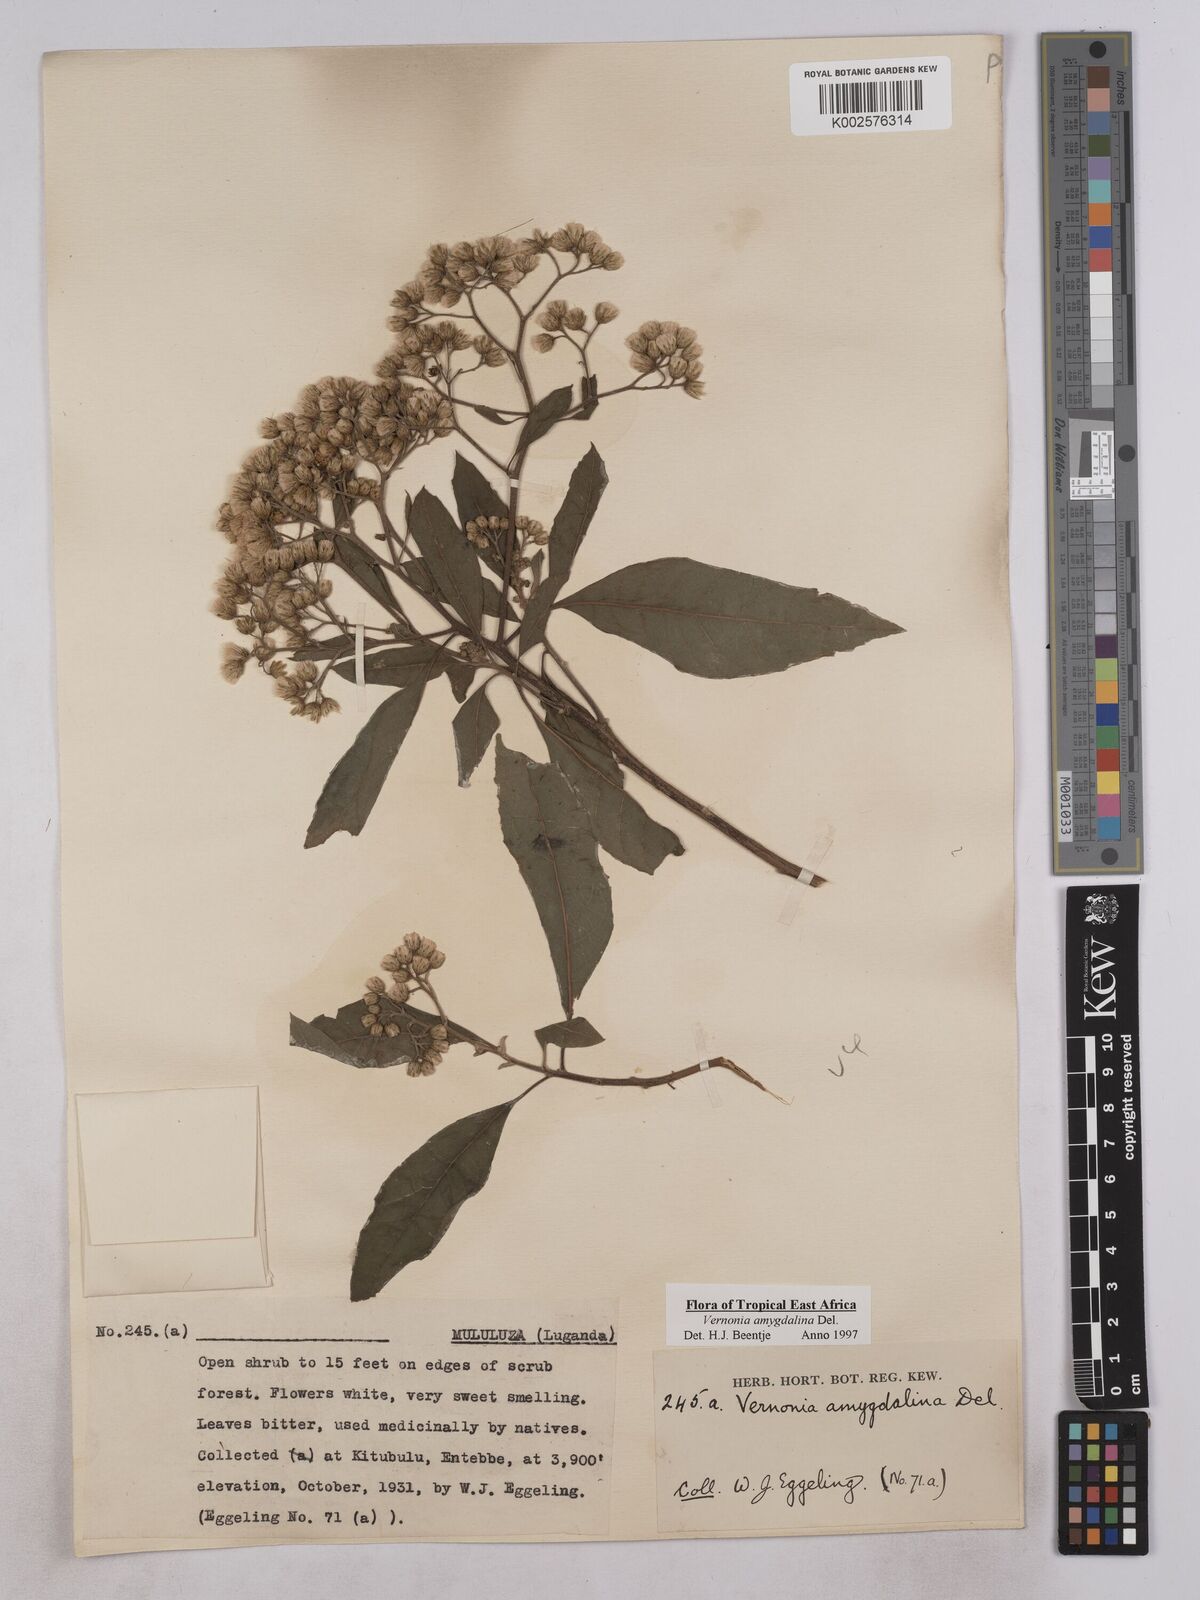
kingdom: Plantae
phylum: Tracheophyta
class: Magnoliopsida
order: Asterales
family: Asteraceae
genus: Gymnanthemum
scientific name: Gymnanthemum amygdalinum
